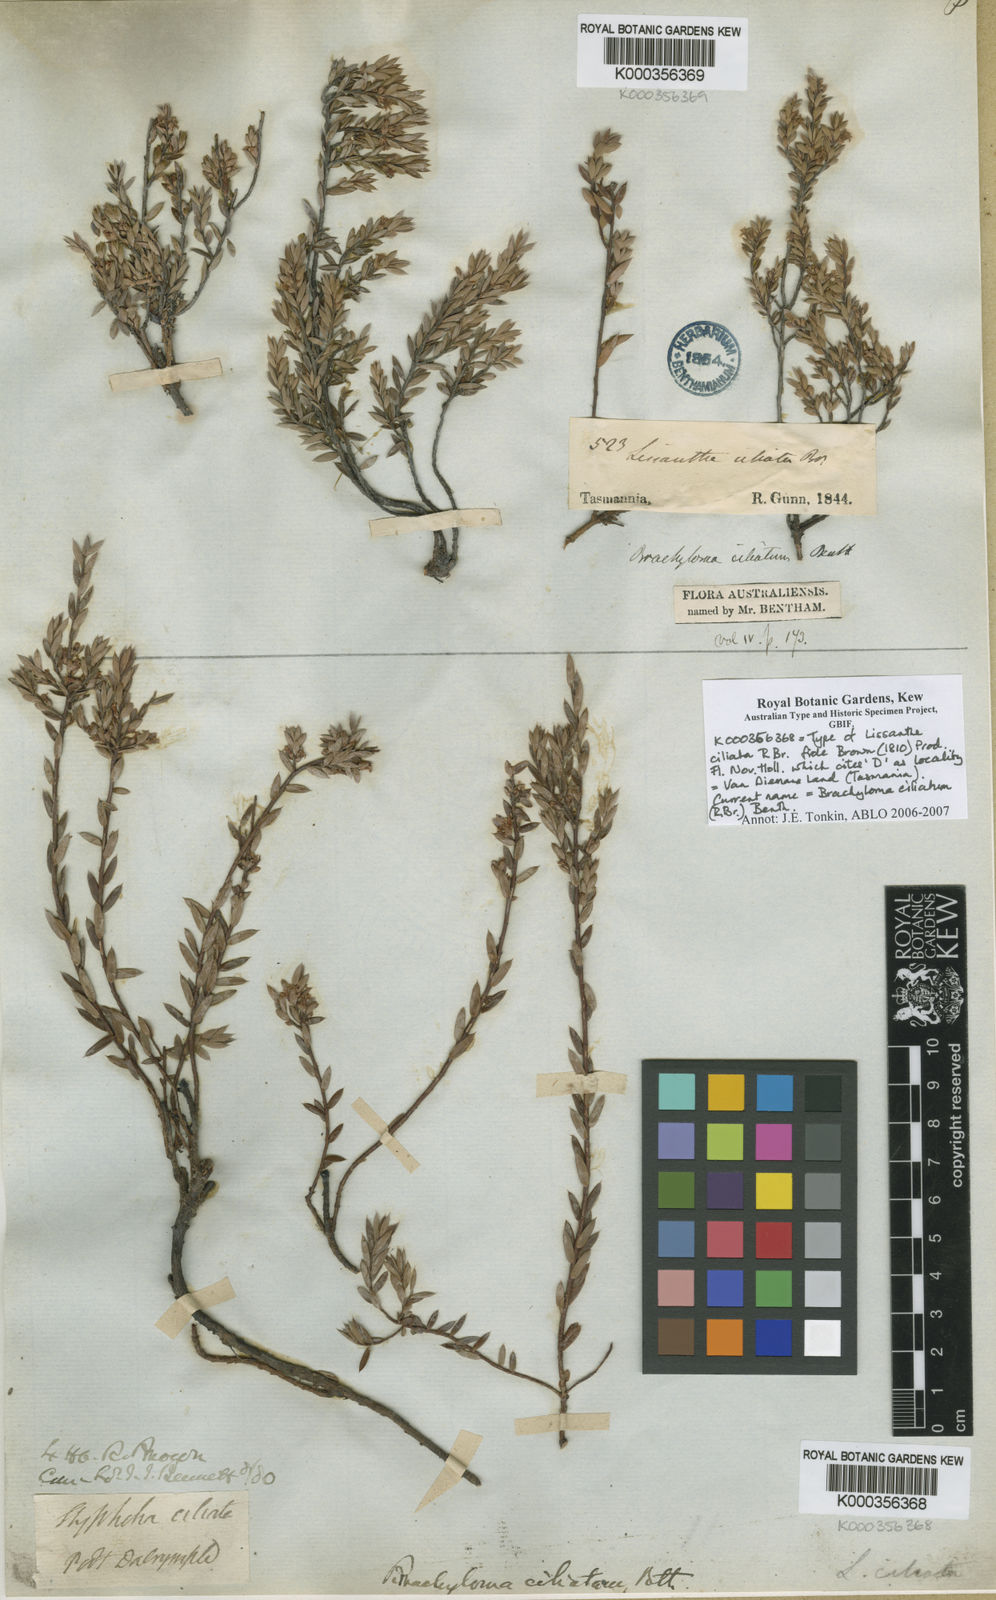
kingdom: Plantae
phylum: Tracheophyta
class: Magnoliopsida
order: Ericales
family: Ericaceae
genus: Brachyloma
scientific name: Brachyloma ciliatum
